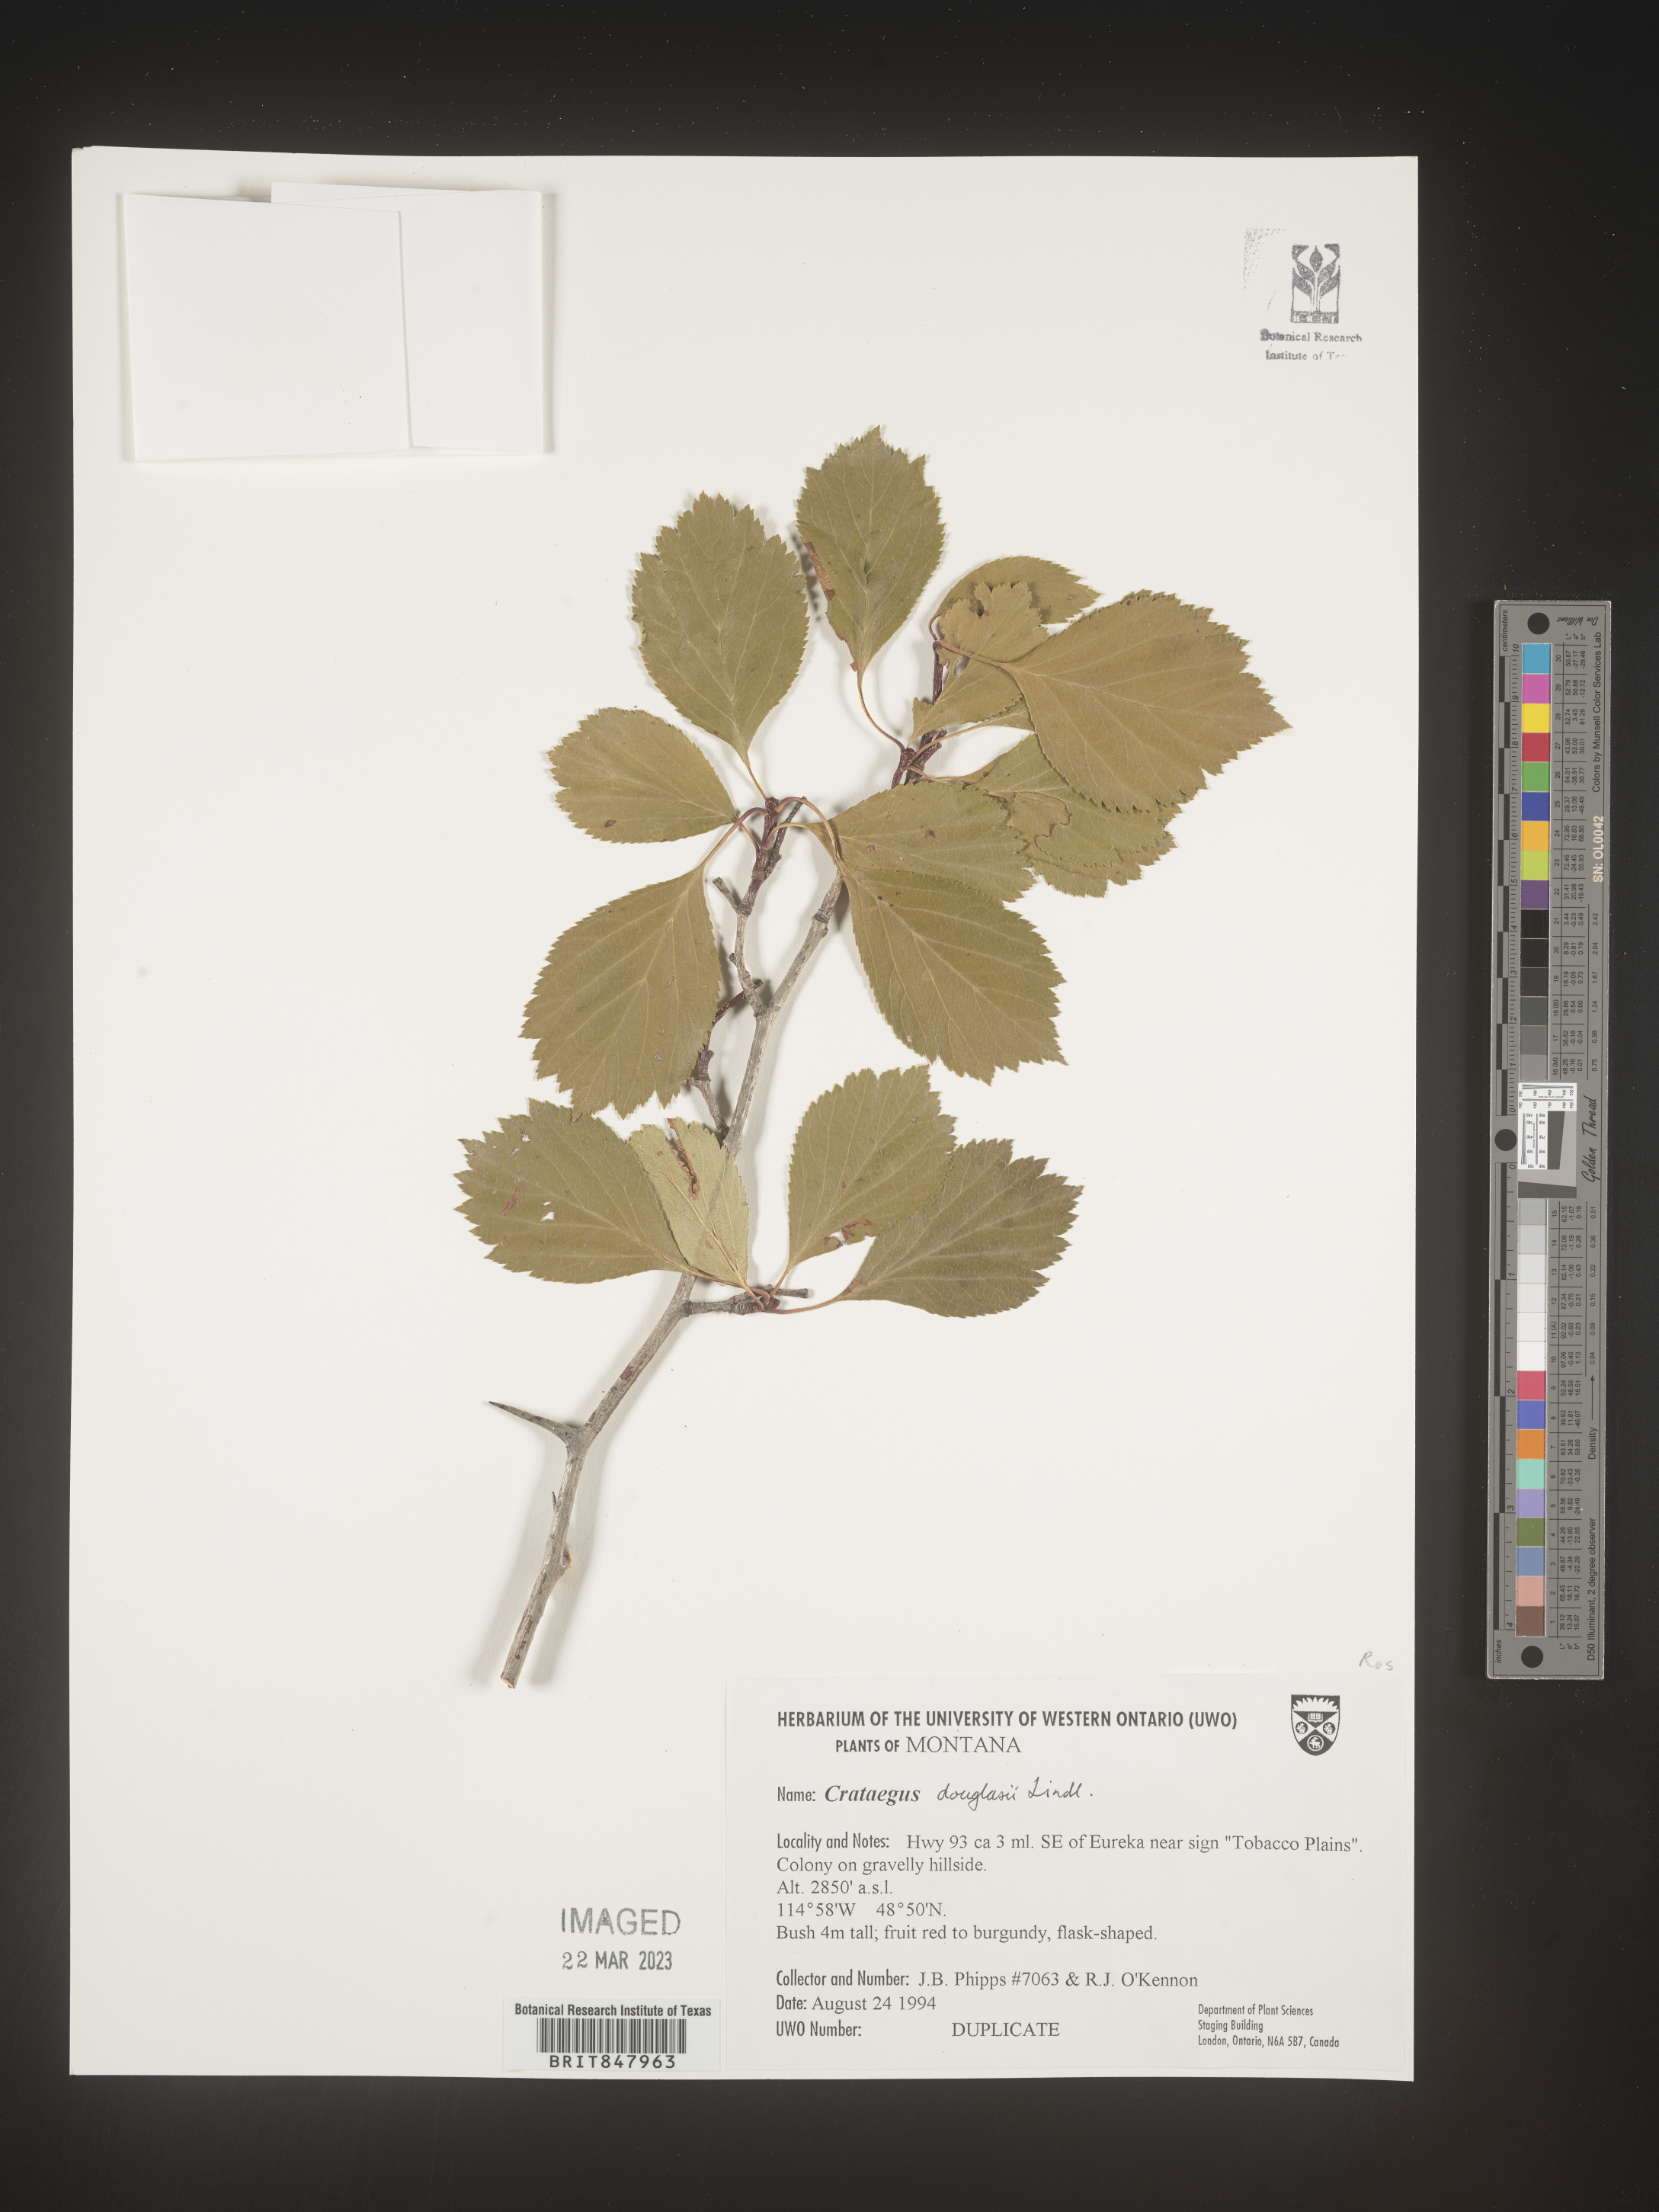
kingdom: Plantae
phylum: Tracheophyta
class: Magnoliopsida
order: Rosales
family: Rosaceae
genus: Crataegus
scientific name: Crataegus douglasii
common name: Black hawthorn
